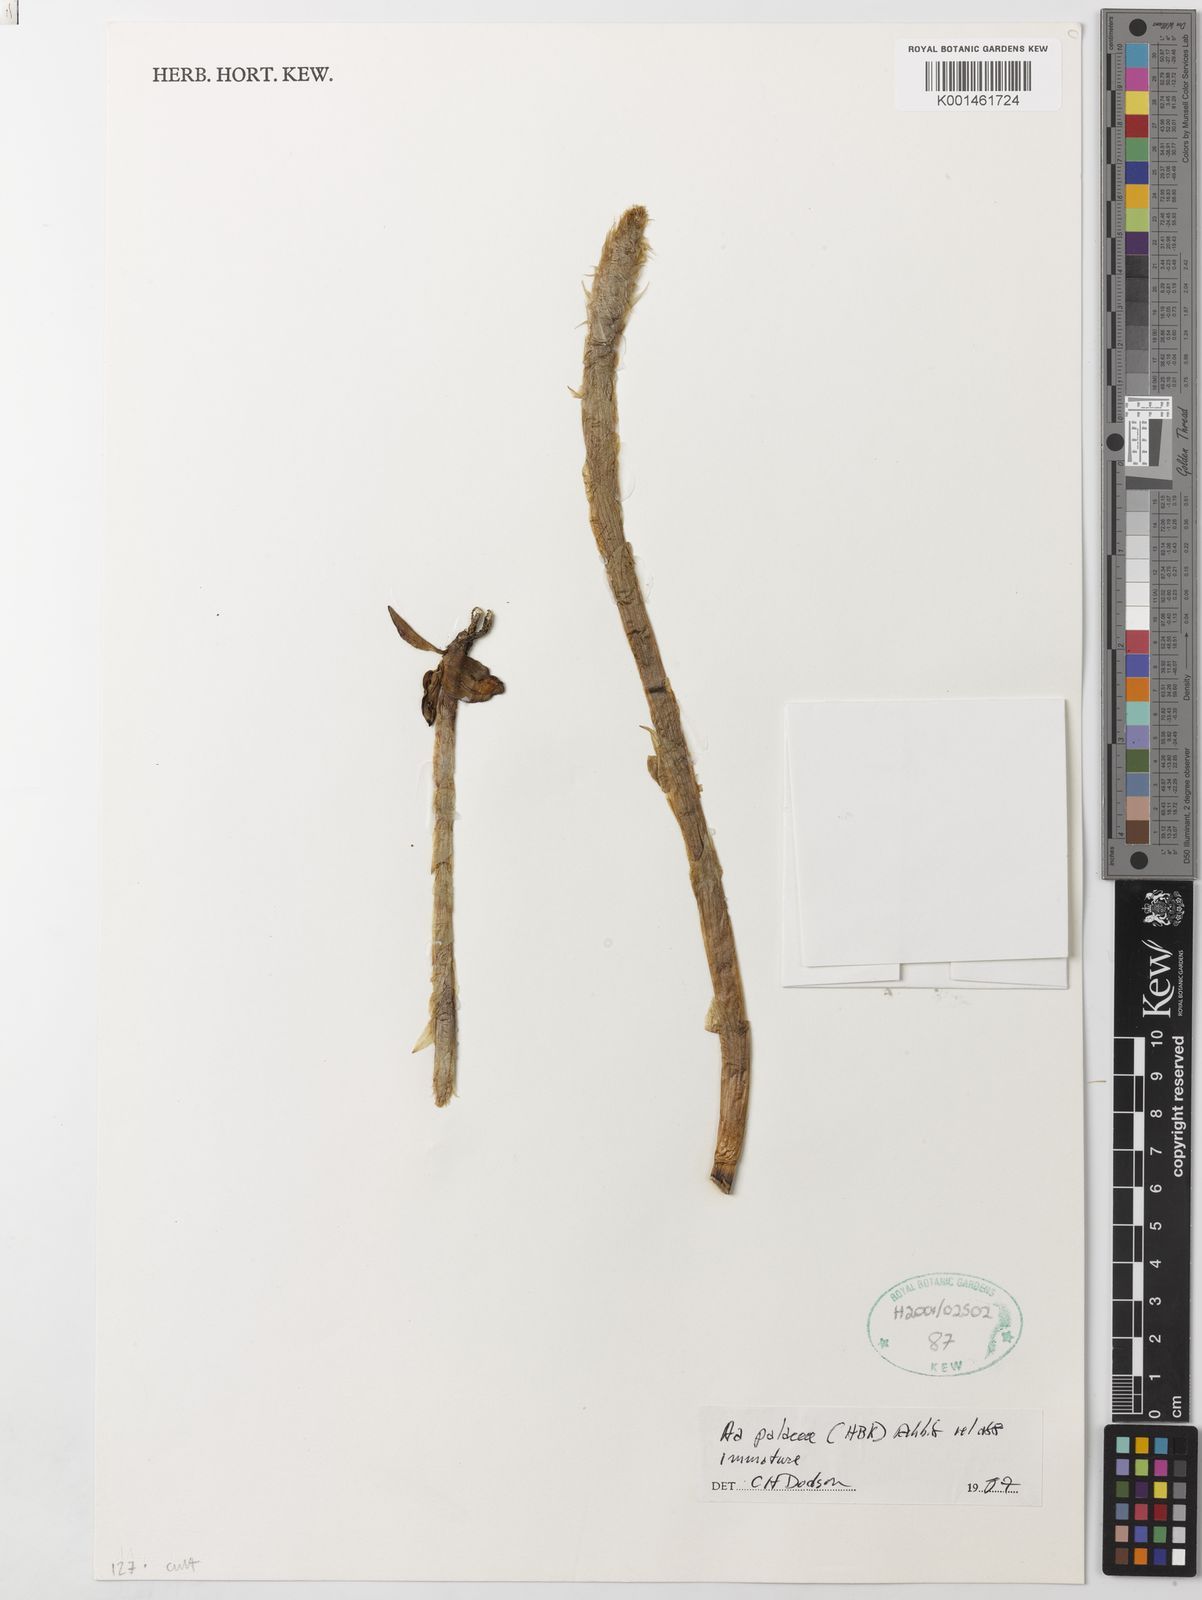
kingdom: Plantae
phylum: Tracheophyta
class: Liliopsida
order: Asparagales
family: Orchidaceae
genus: Aa
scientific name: Aa paleacea
